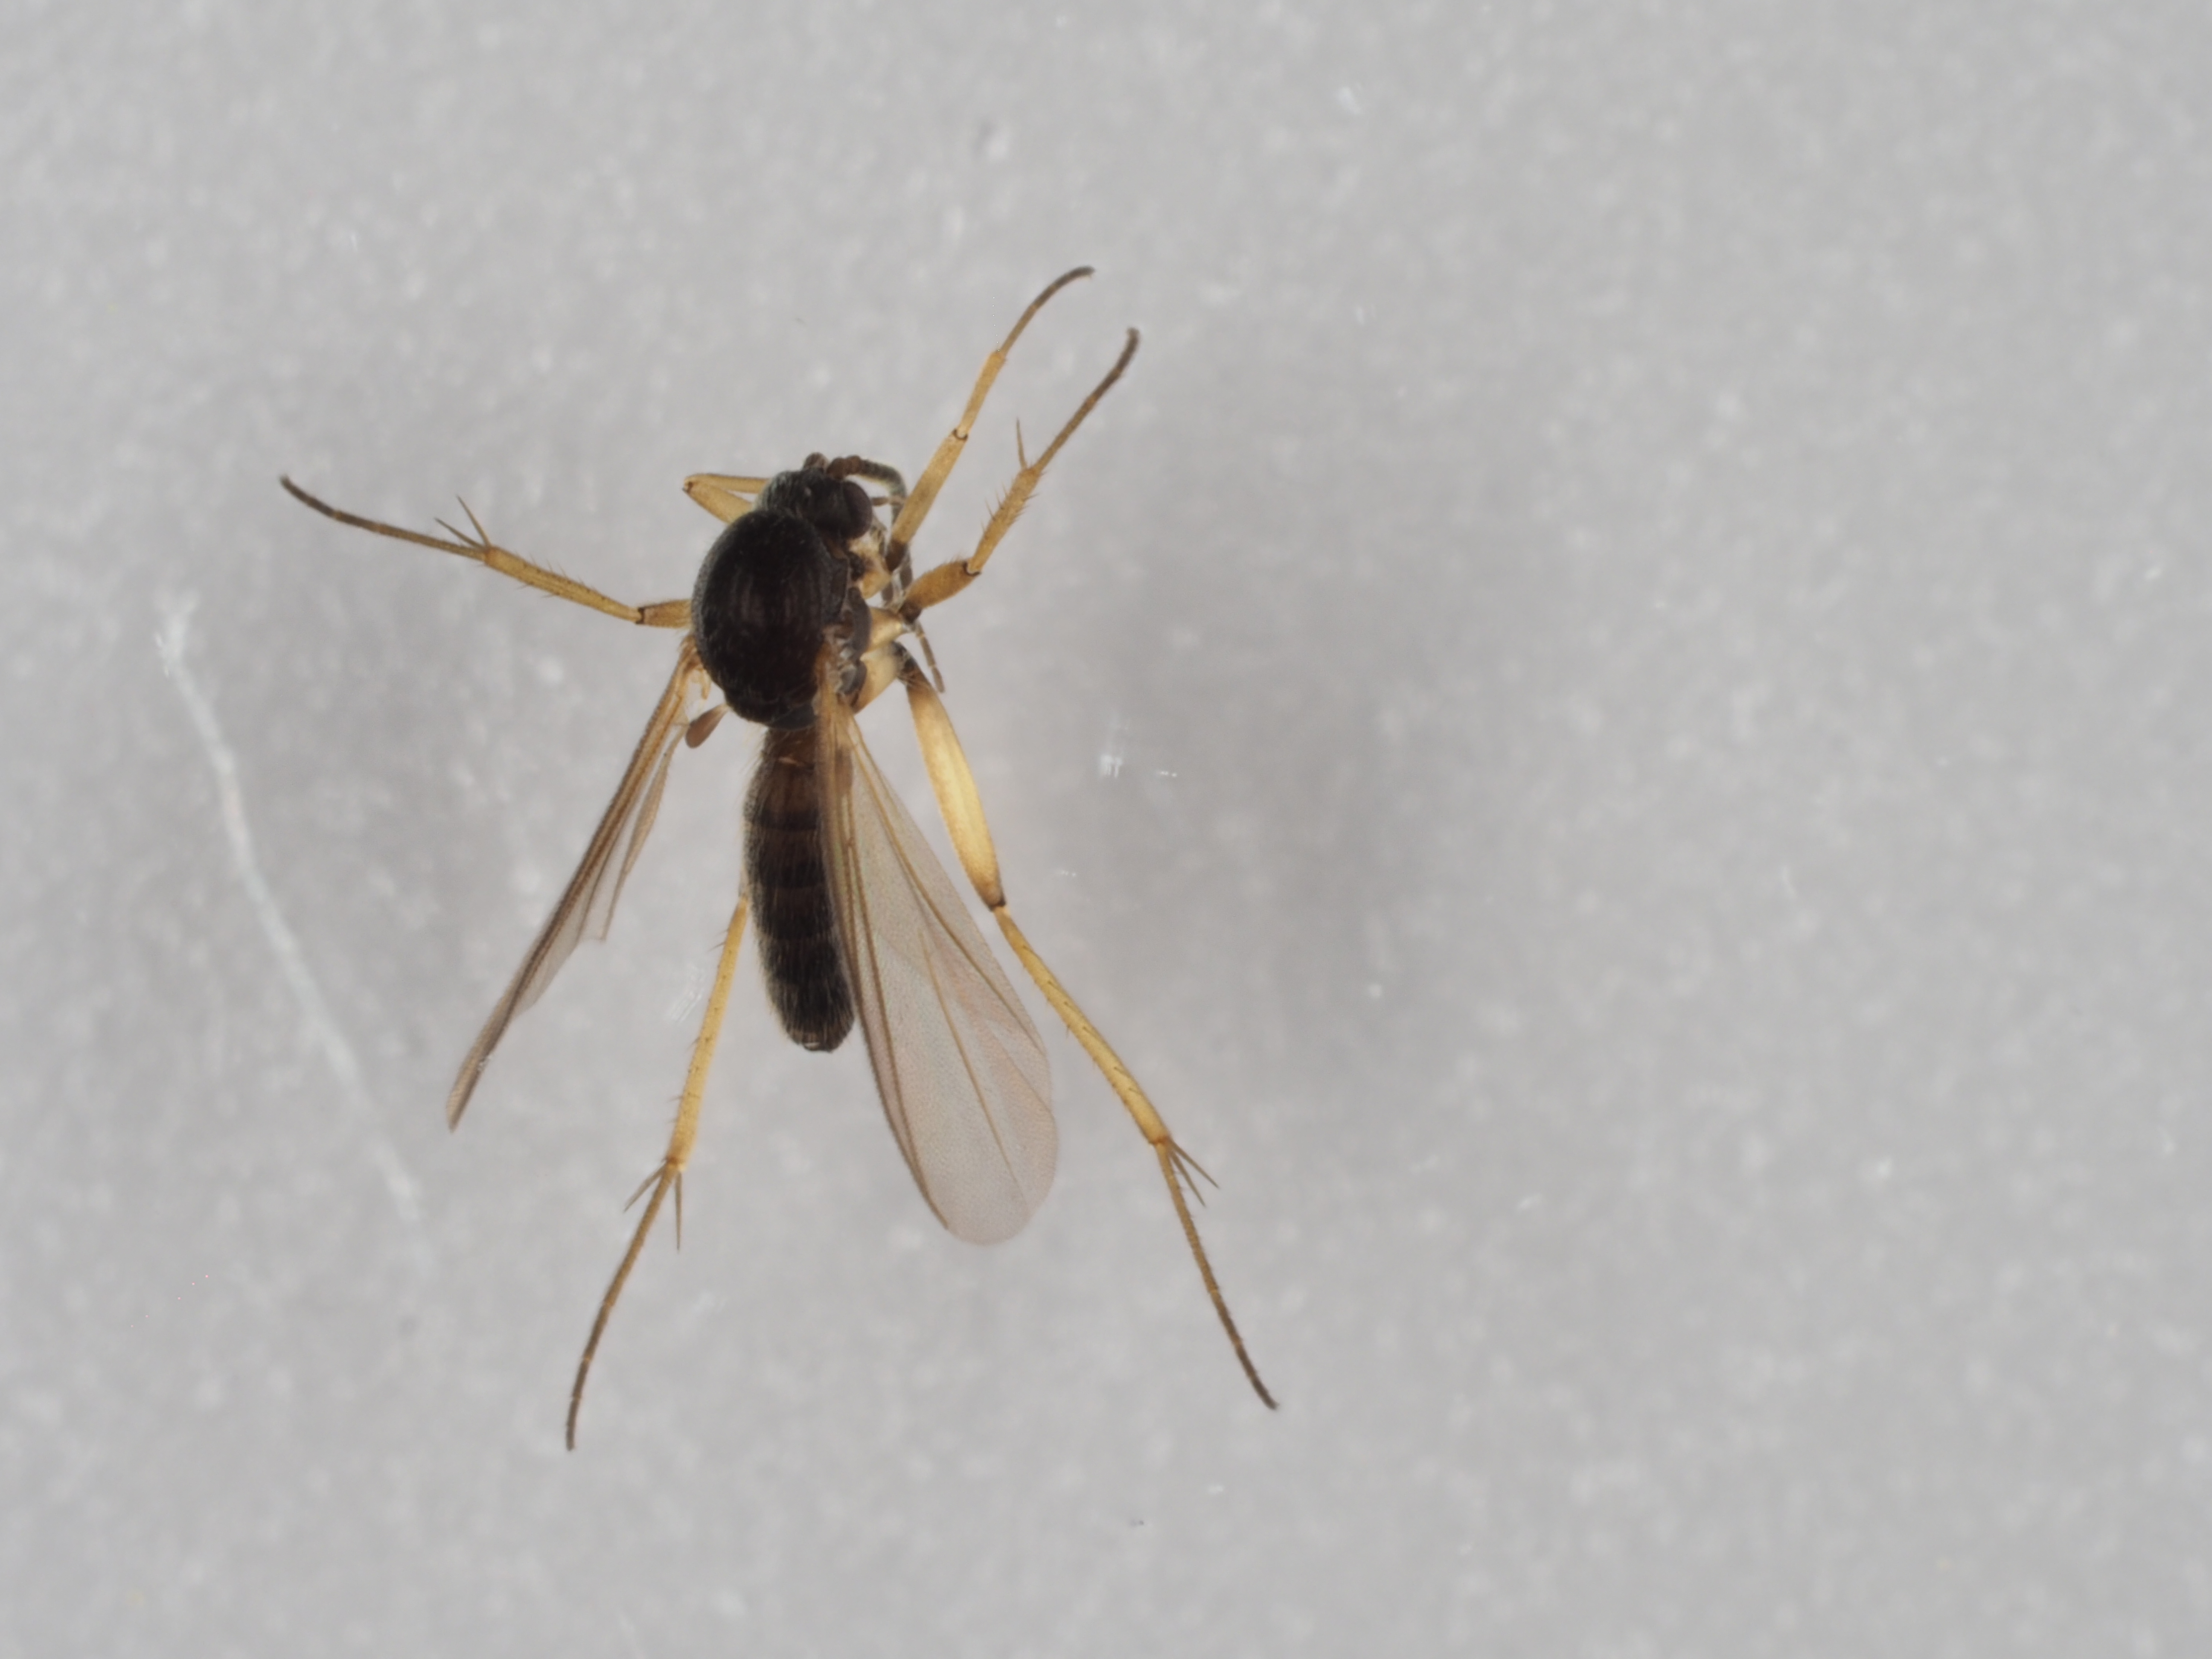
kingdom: Animalia
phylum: Arthropoda
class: Insecta
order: Diptera
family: Mycetophilidae
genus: Azana
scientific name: Azana anomala
